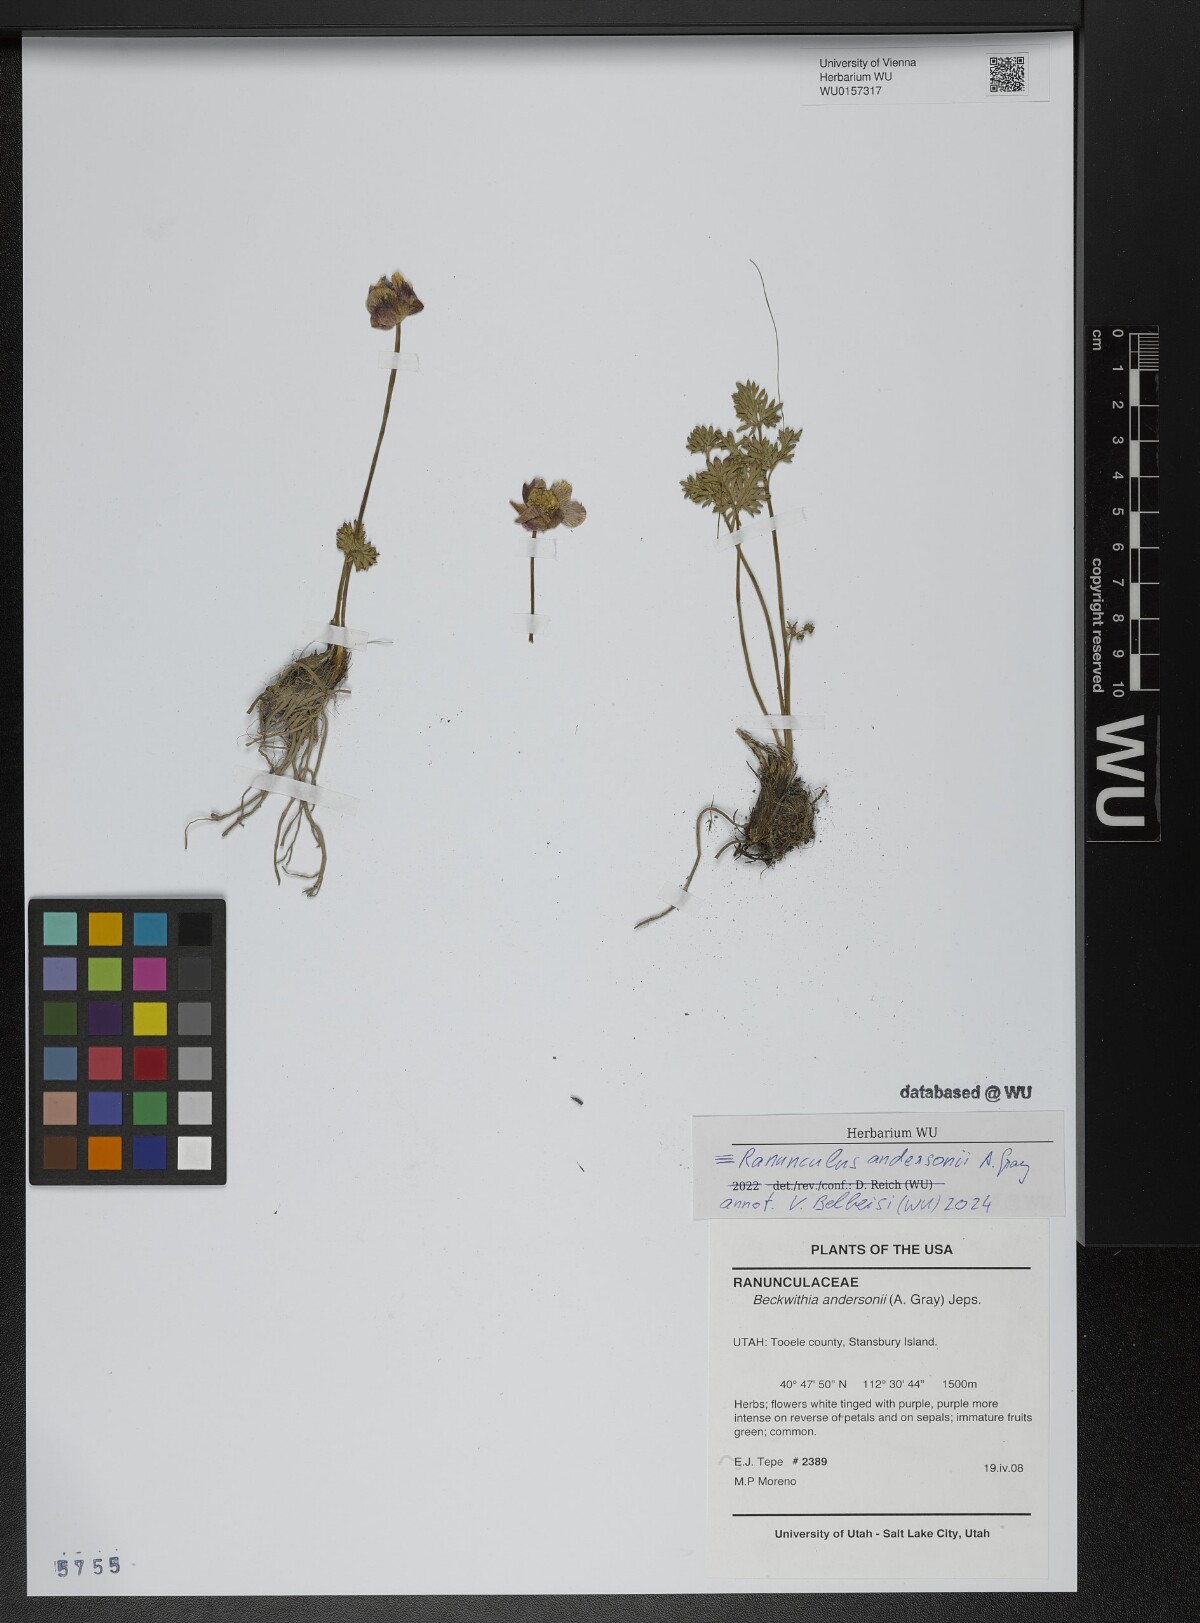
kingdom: Plantae
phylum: Tracheophyta
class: Magnoliopsida
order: Ranunculales
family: Ranunculaceae
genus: Beckwithia
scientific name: Beckwithia andersonii
